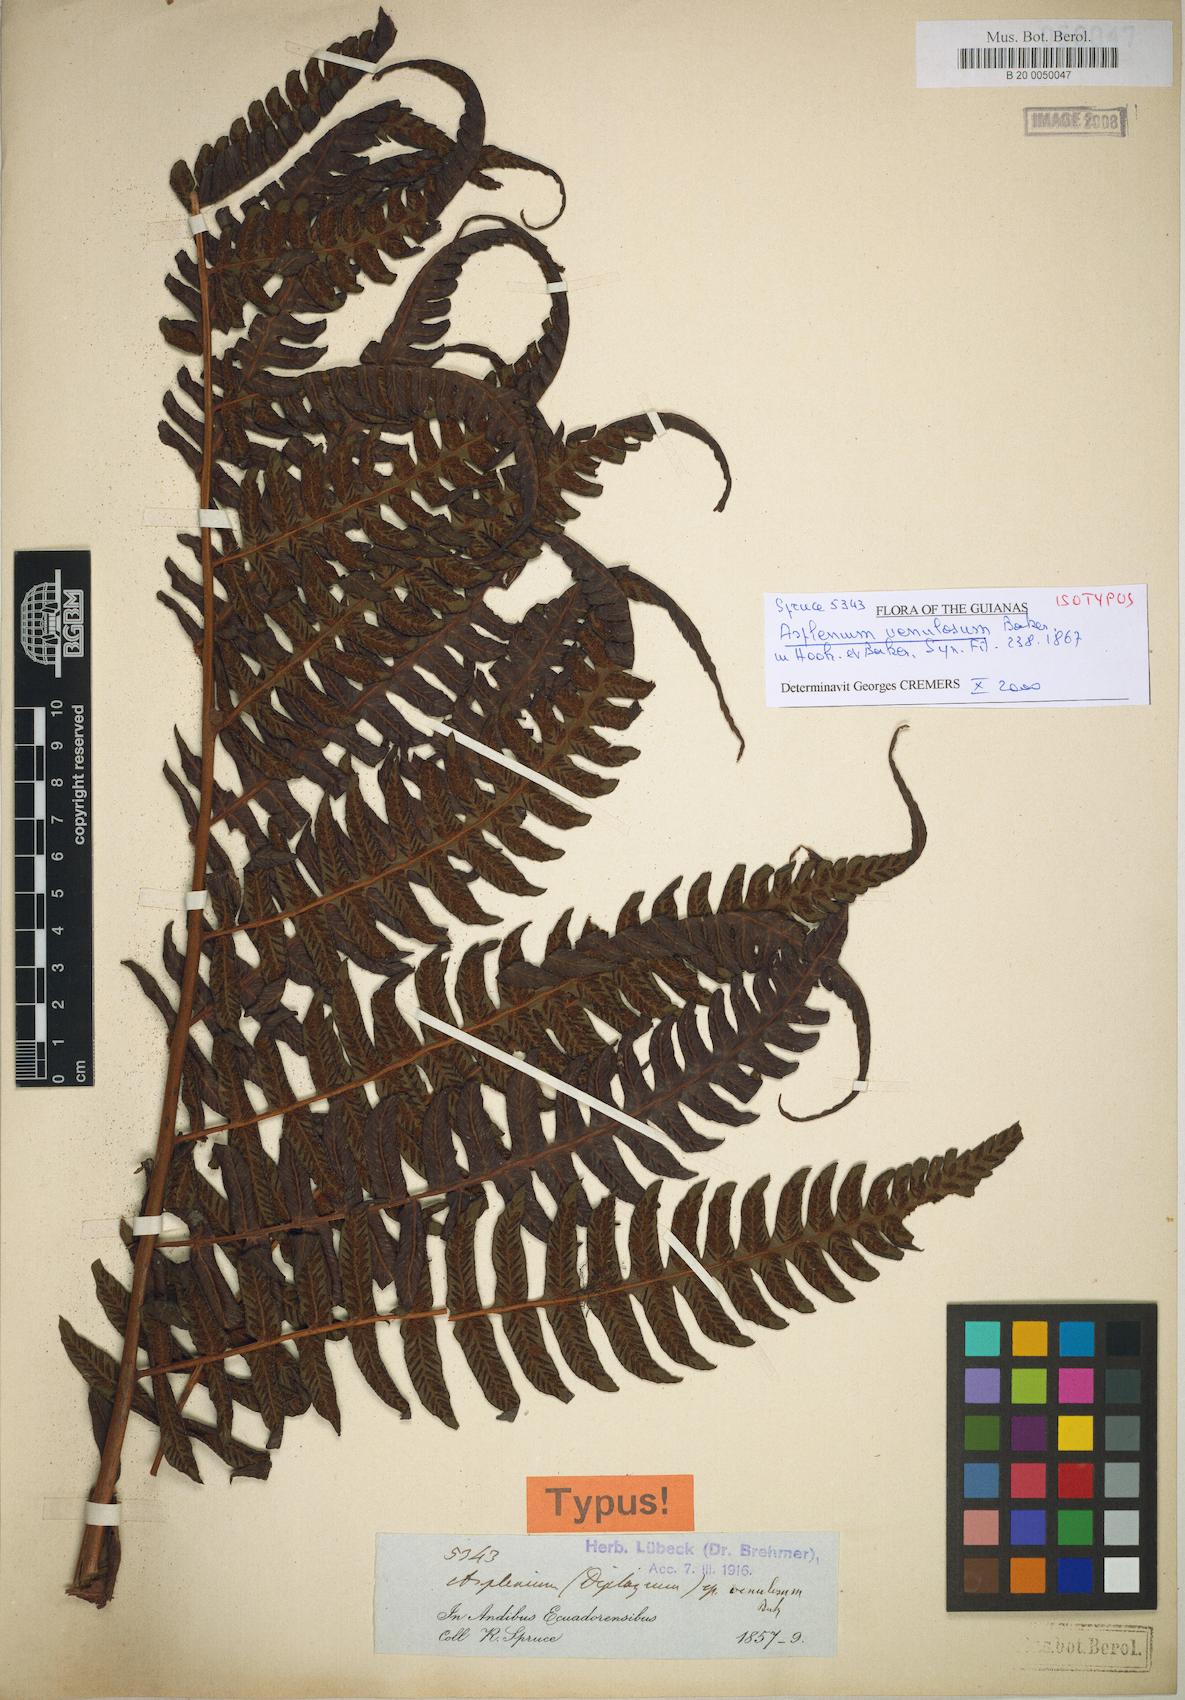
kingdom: Plantae
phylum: Tracheophyta
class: Polypodiopsida
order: Polypodiales
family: Athyriaceae
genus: Diplazium
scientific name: Diplazium venulosum
